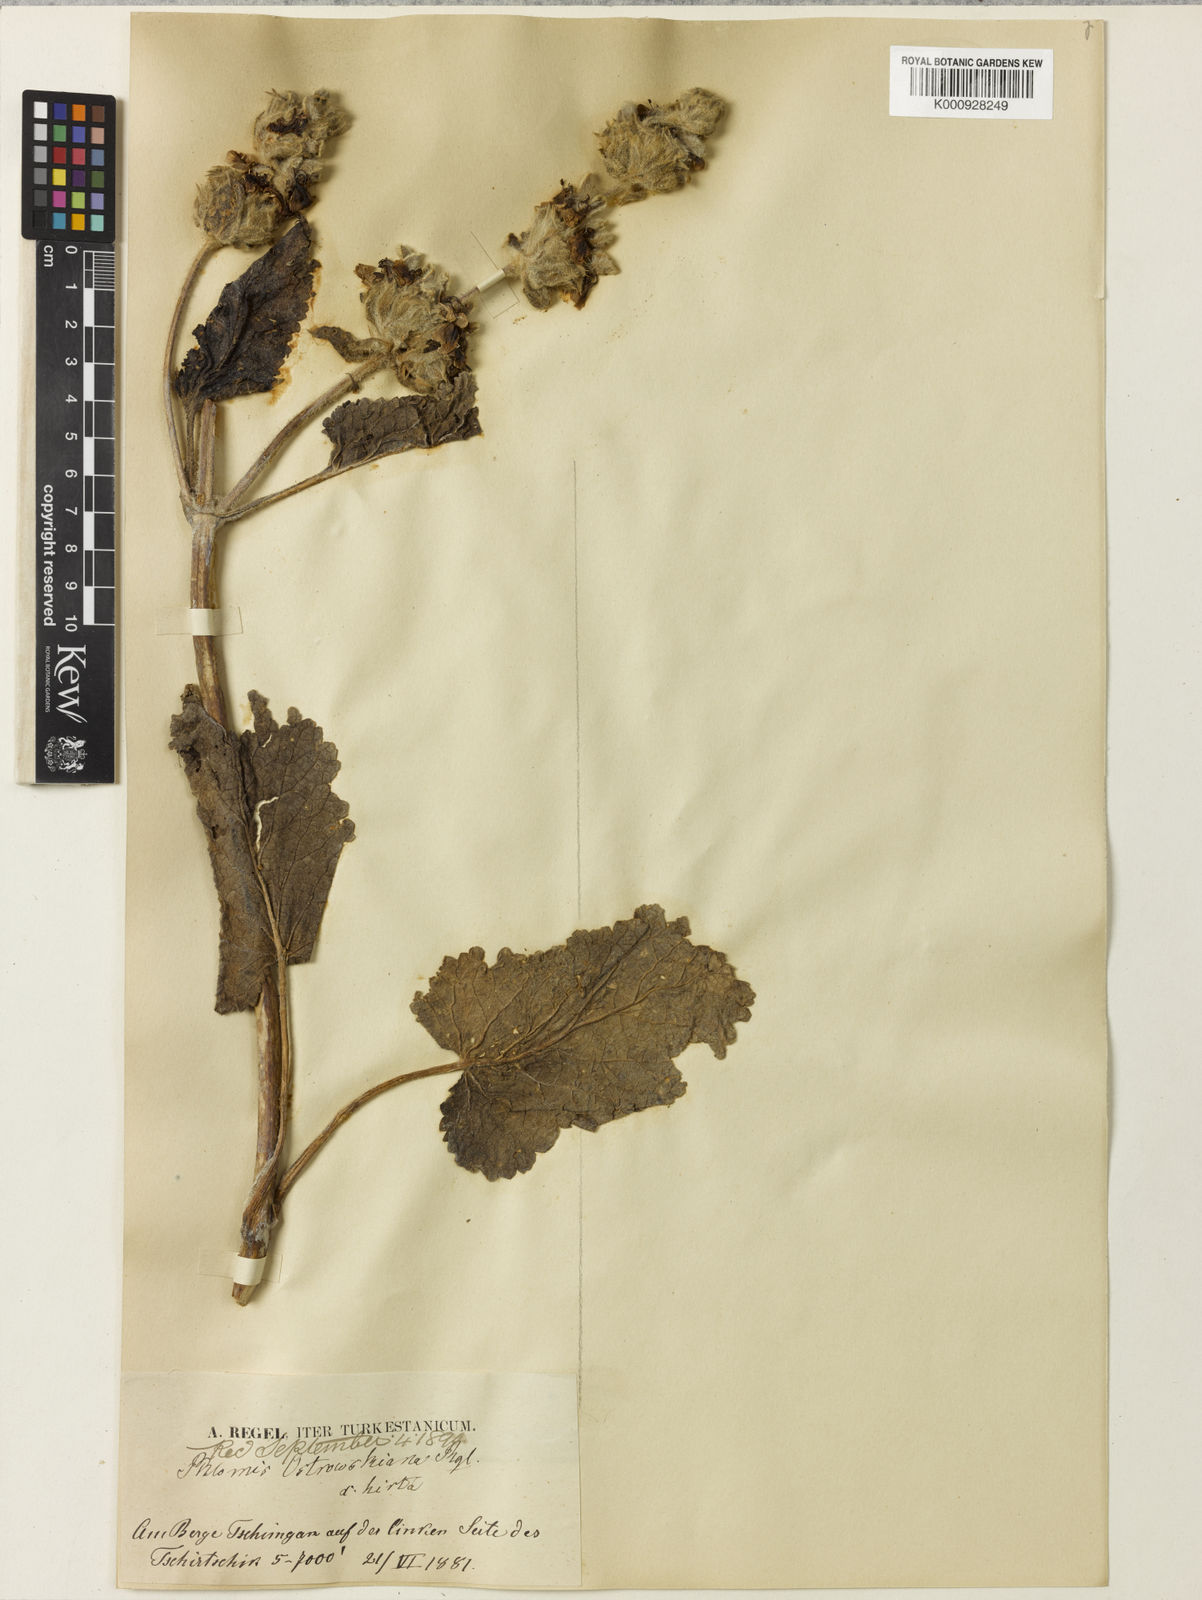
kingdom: Plantae
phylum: Tracheophyta
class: Magnoliopsida
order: Lamiales
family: Lamiaceae
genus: Phlomoides
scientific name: Phlomoides ostrowskiana
